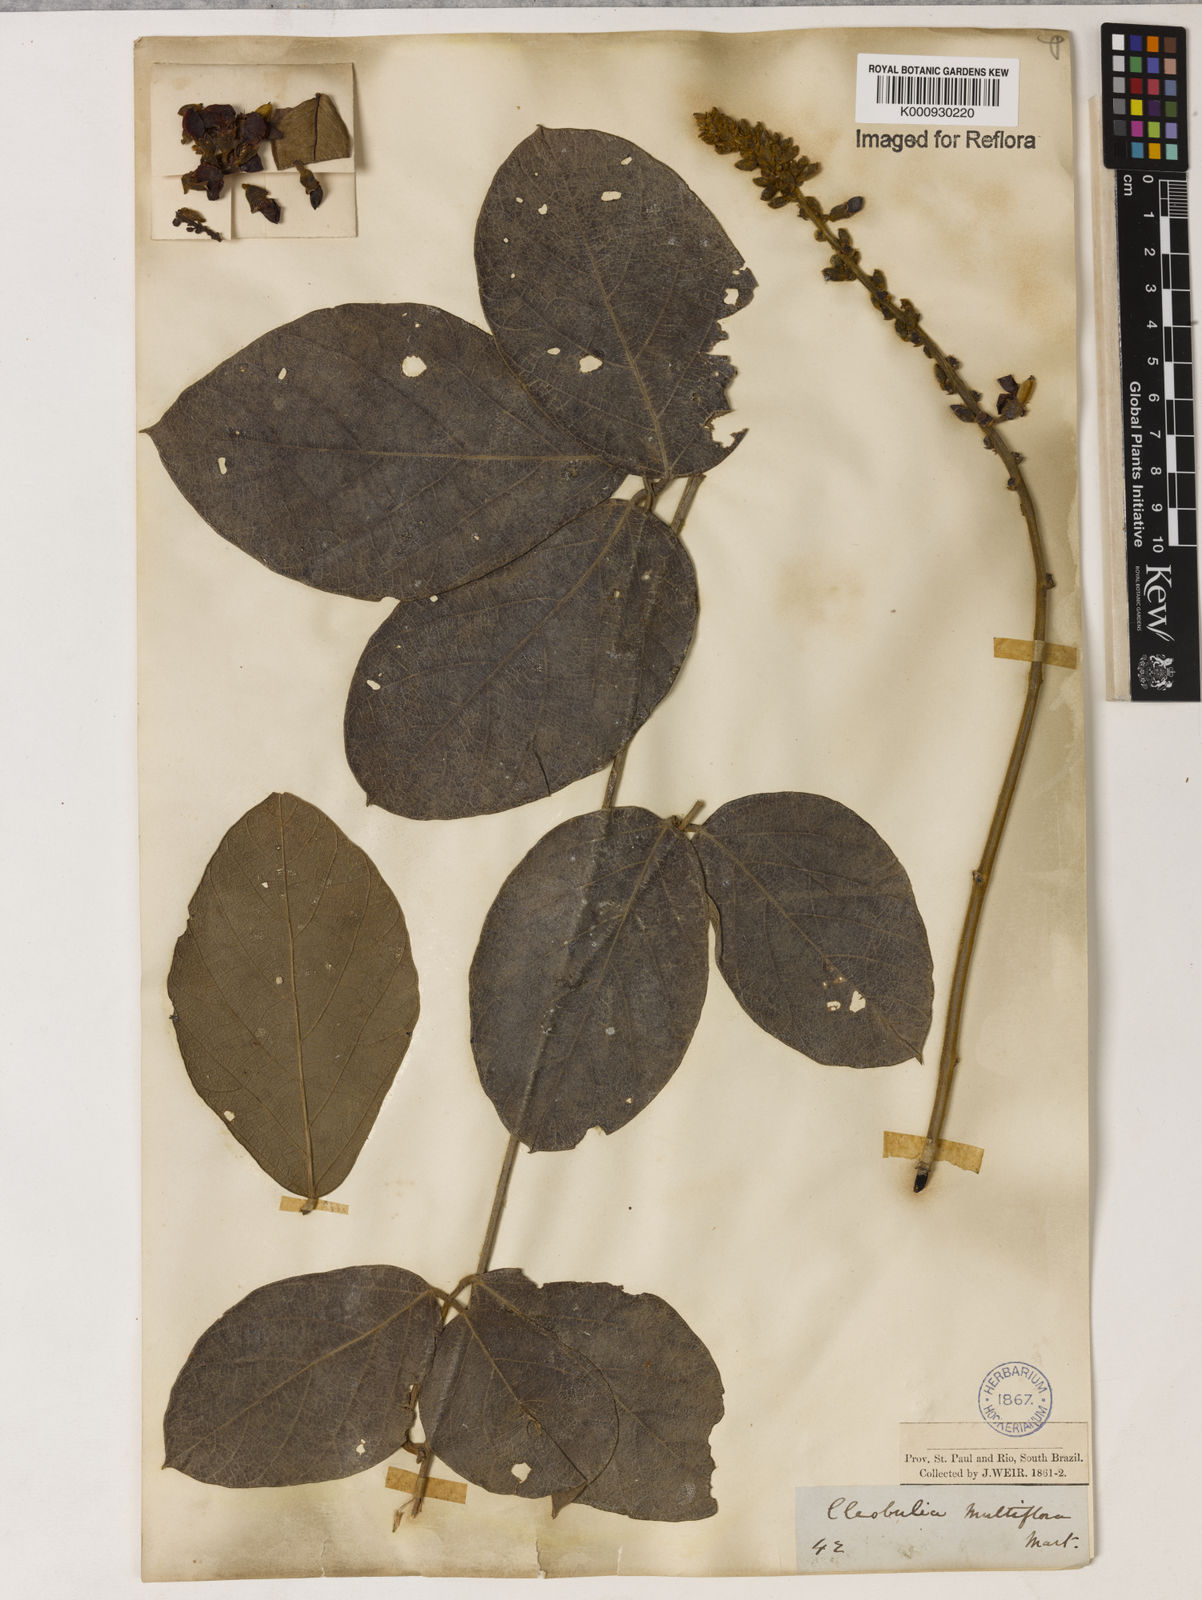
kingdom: Plantae
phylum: Tracheophyta
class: Magnoliopsida
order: Fabales
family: Fabaceae
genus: Cleobulia
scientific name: Cleobulia coccinea
